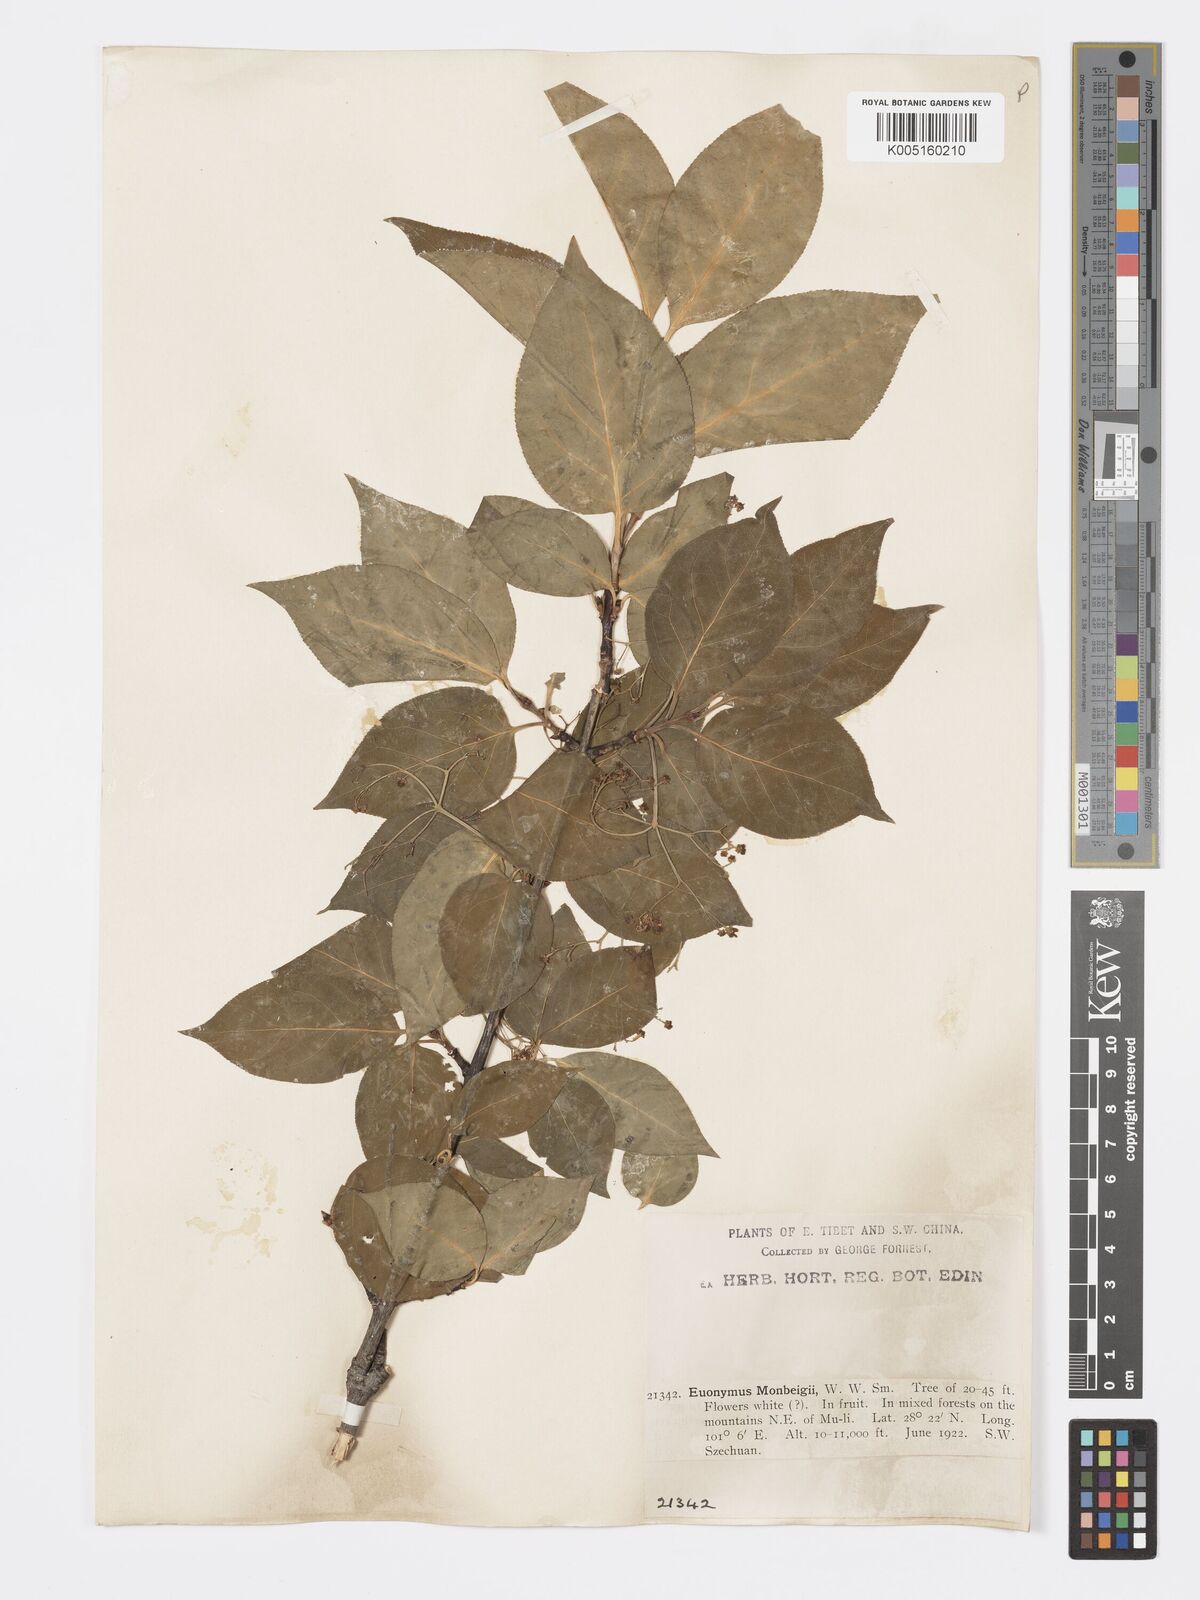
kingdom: Plantae
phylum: Tracheophyta
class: Magnoliopsida
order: Celastrales
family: Celastraceae
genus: Euonymus
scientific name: Euonymus sanguineus
